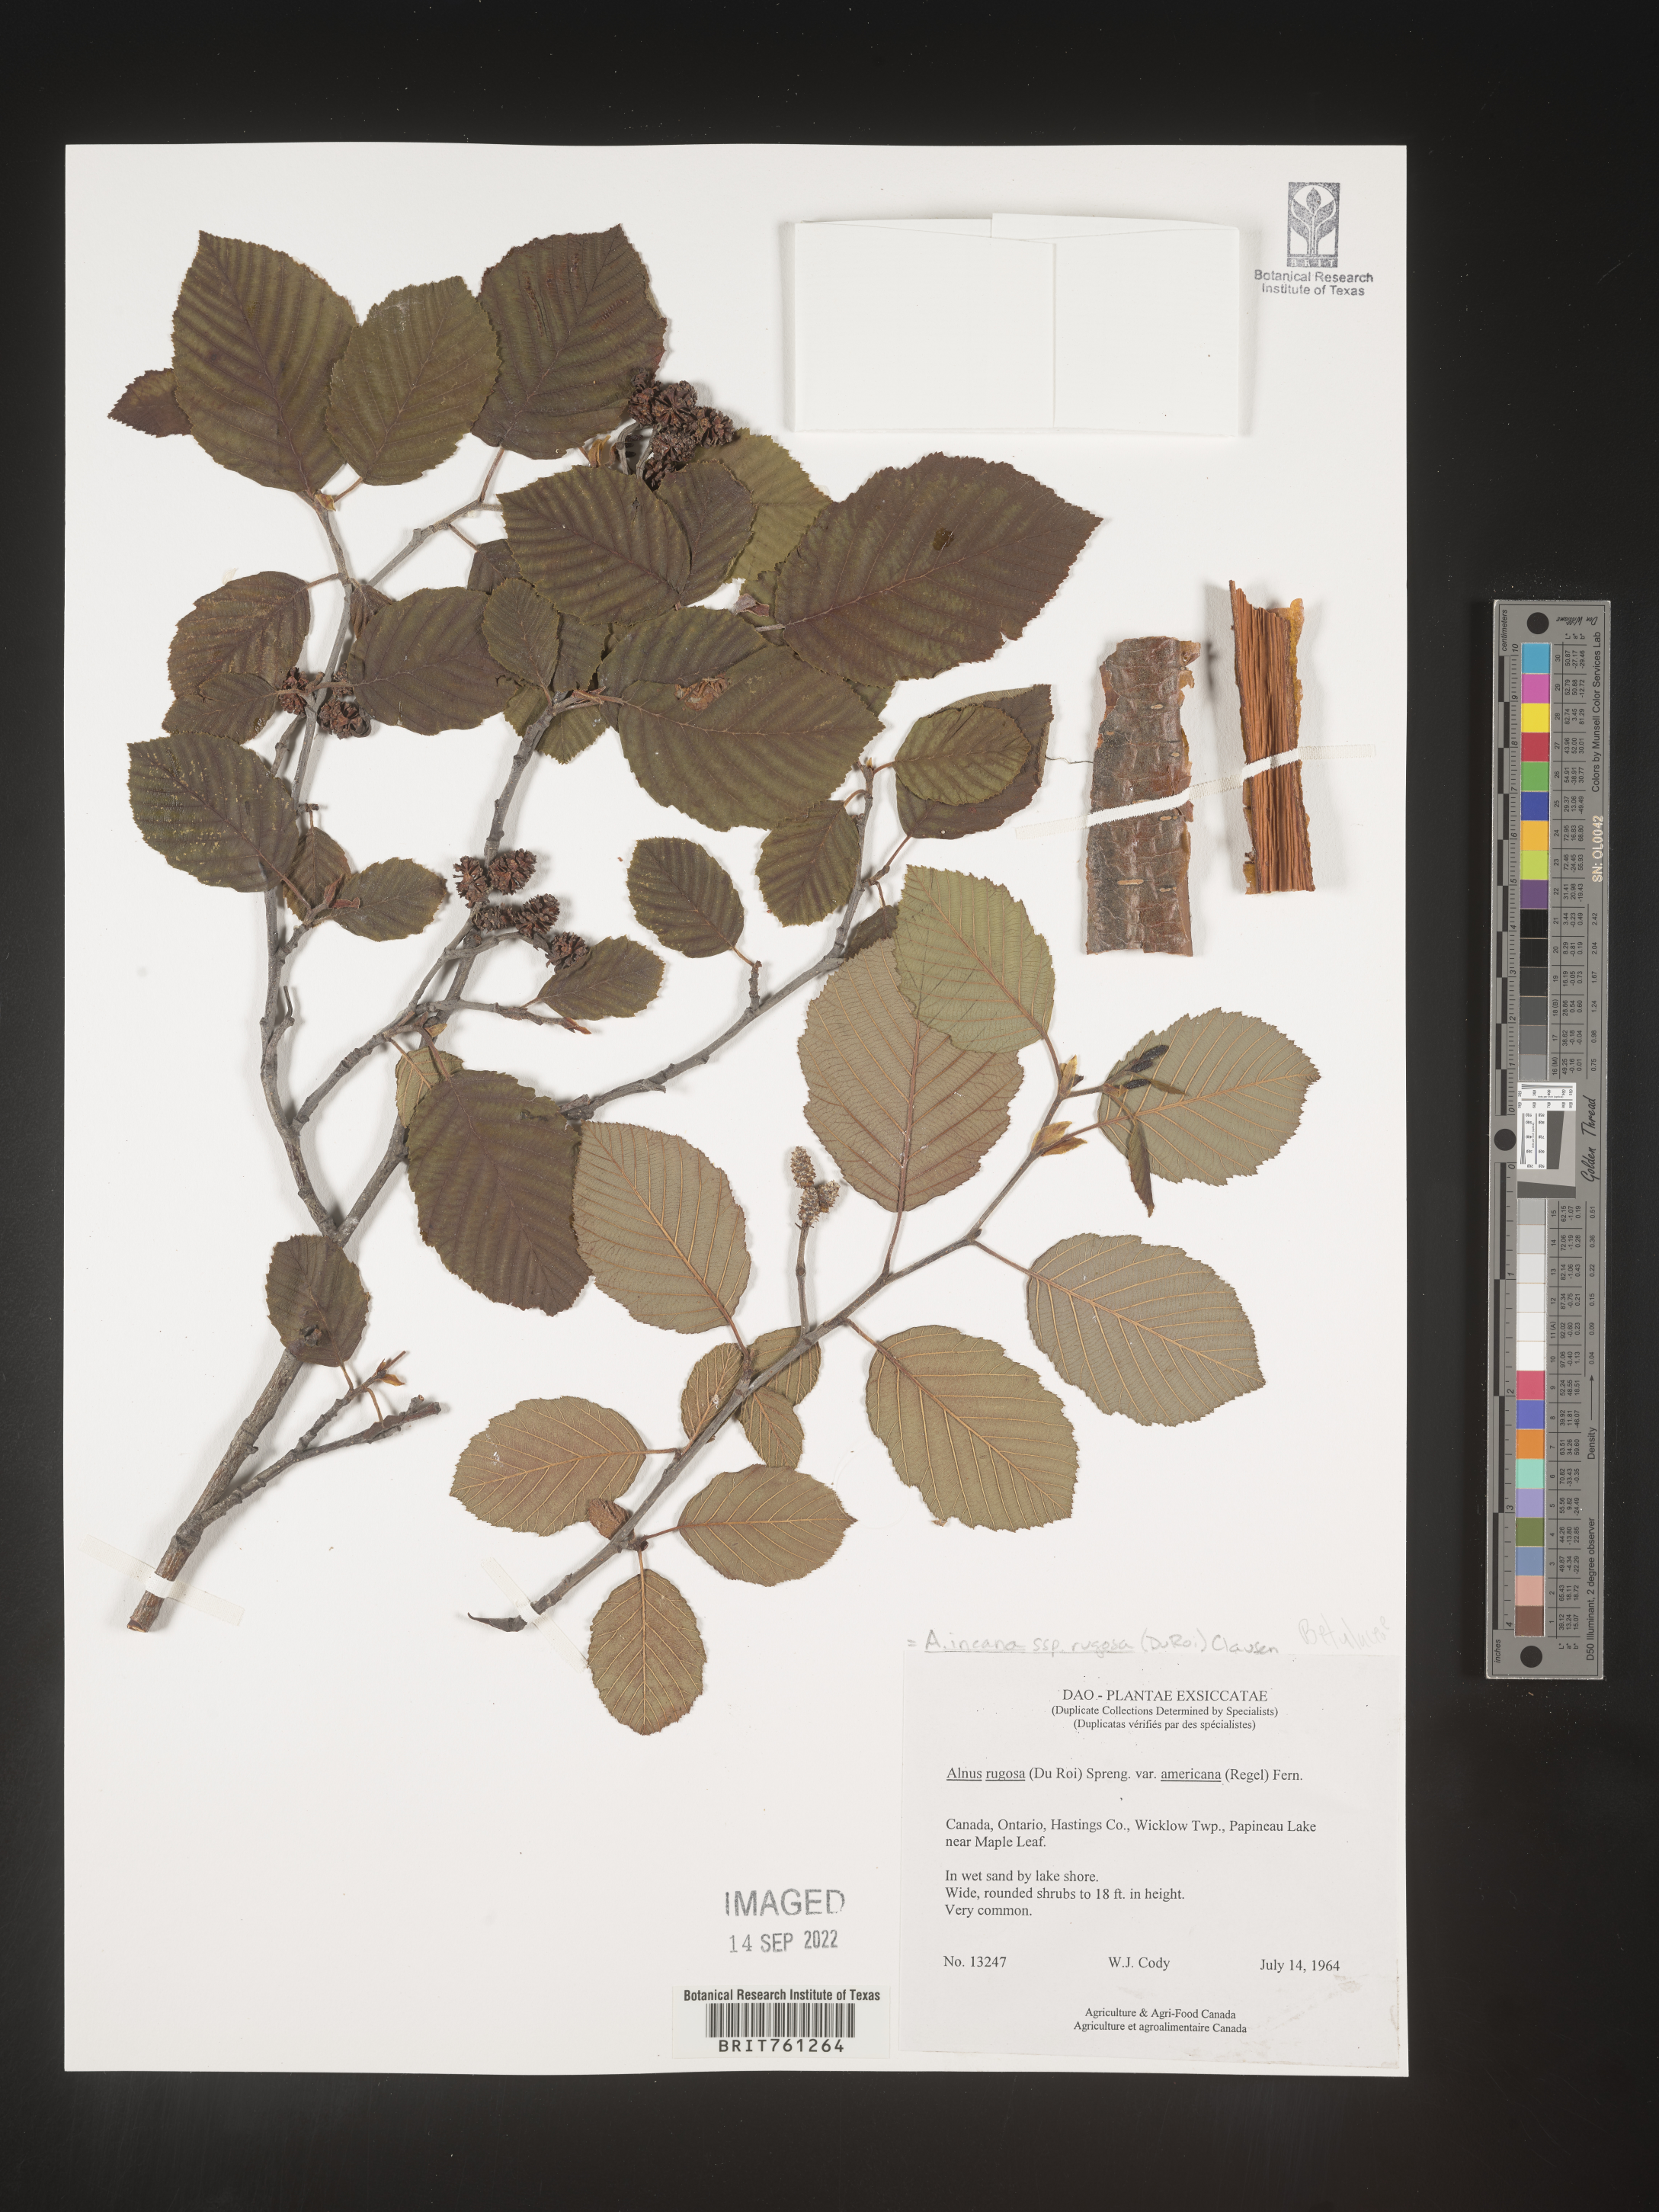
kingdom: Plantae
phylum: Tracheophyta
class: Magnoliopsida
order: Fagales
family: Betulaceae
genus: Alnus
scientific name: Alnus incana
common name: Grey alder
